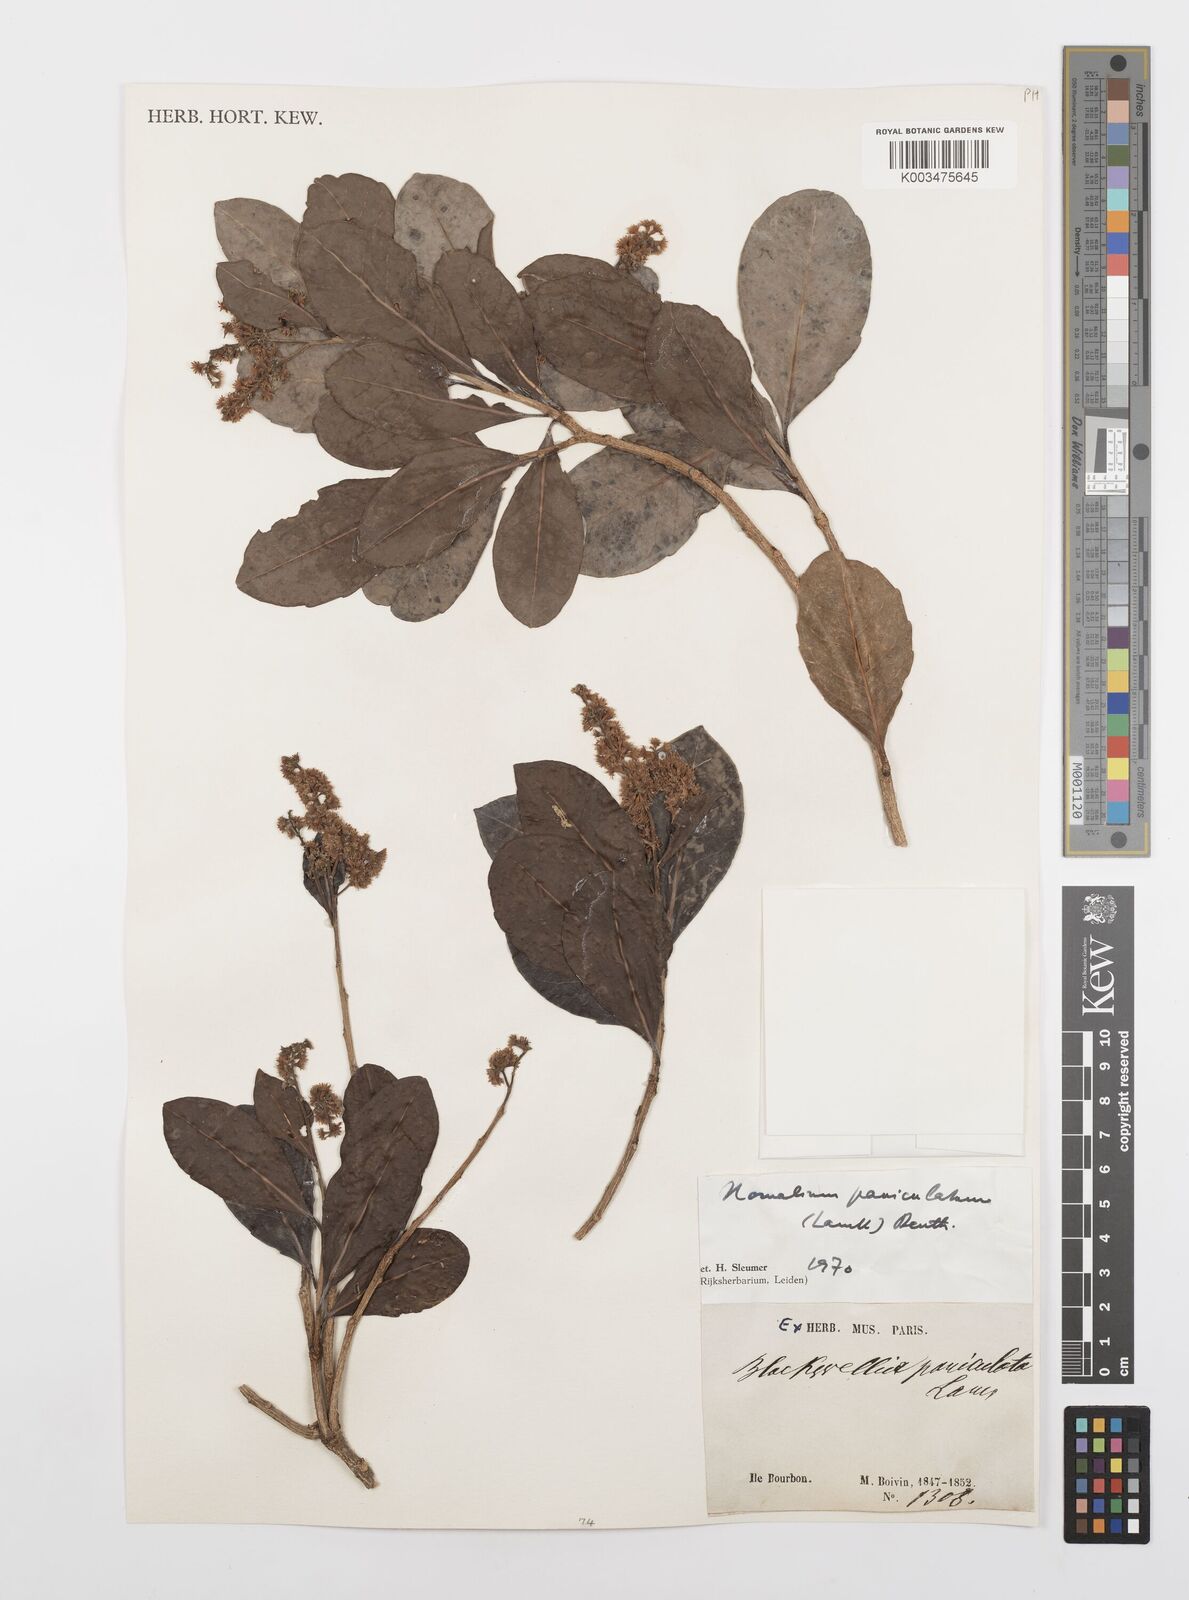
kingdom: Plantae
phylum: Tracheophyta
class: Magnoliopsida
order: Malpighiales
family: Salicaceae
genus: Homalium
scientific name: Homalium erianthum
